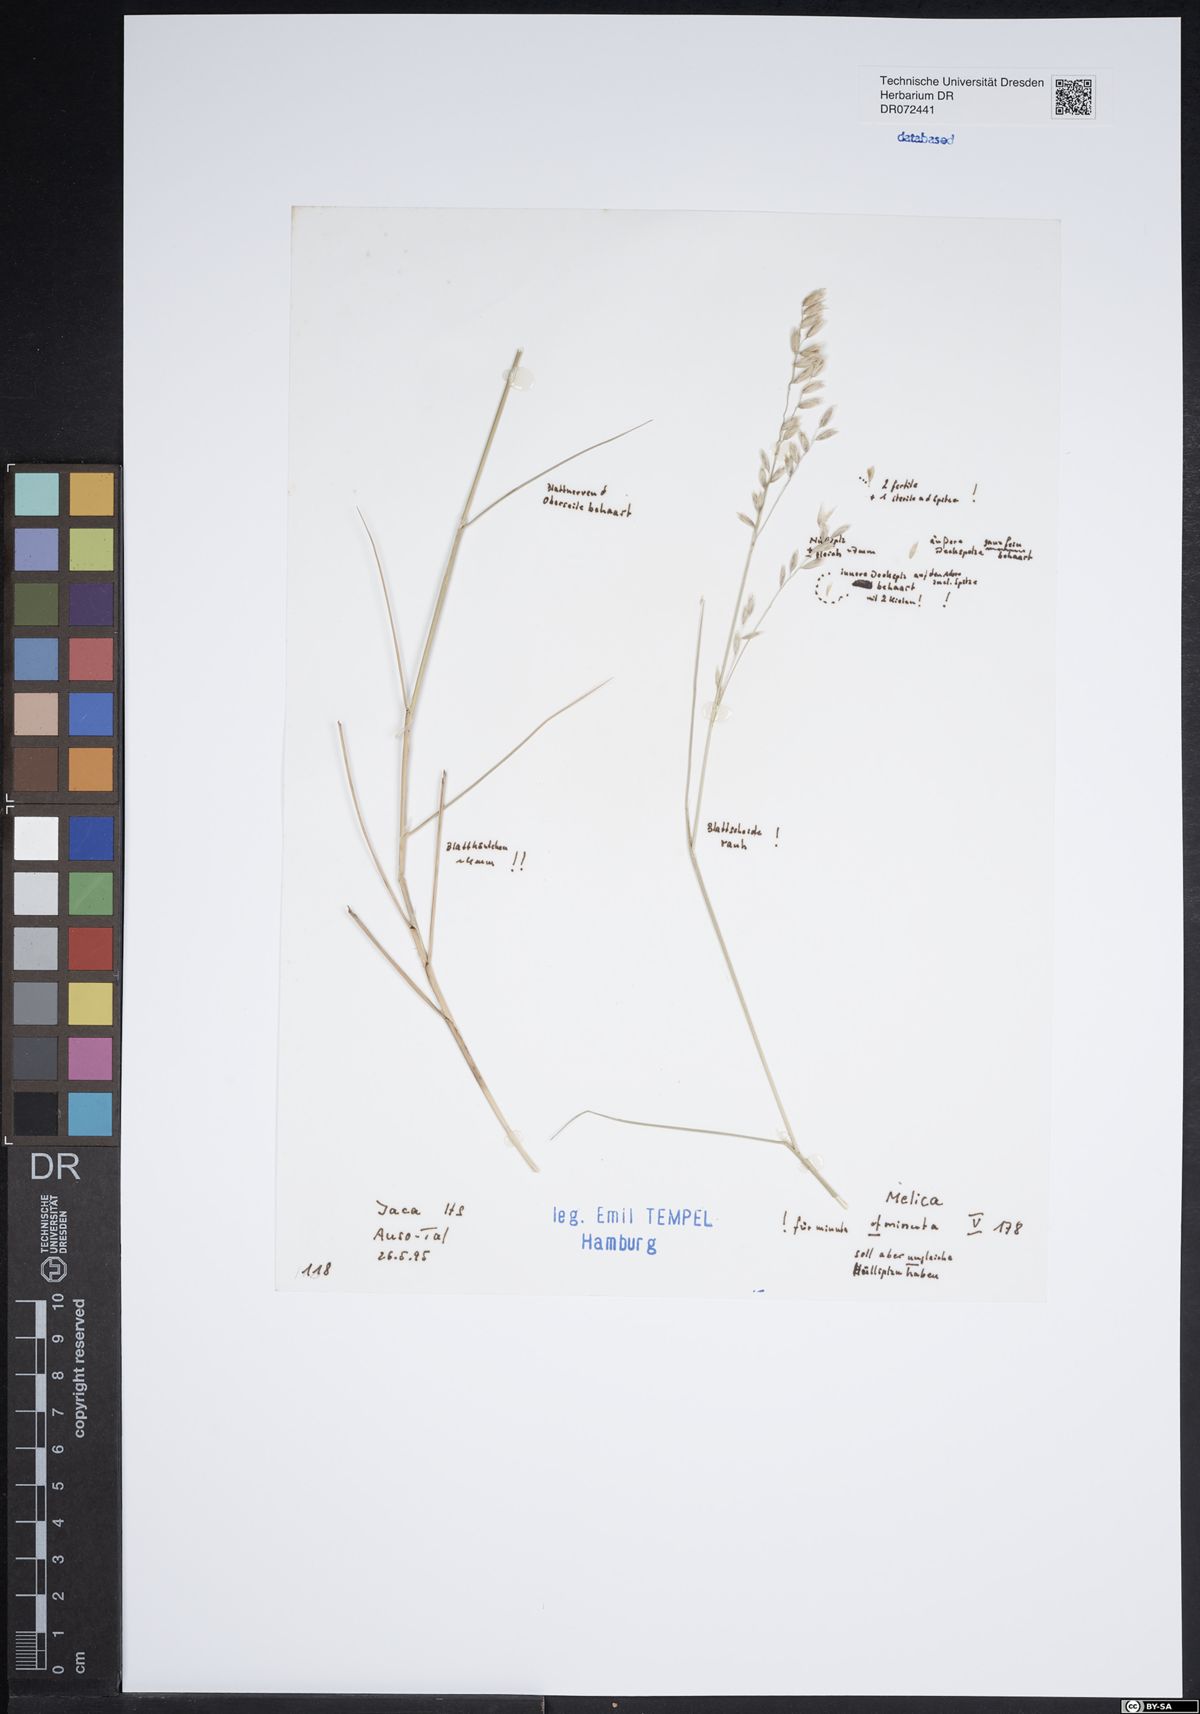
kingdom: Plantae
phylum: Tracheophyta
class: Liliopsida
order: Poales
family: Poaceae
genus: Melica
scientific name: Melica minuta
